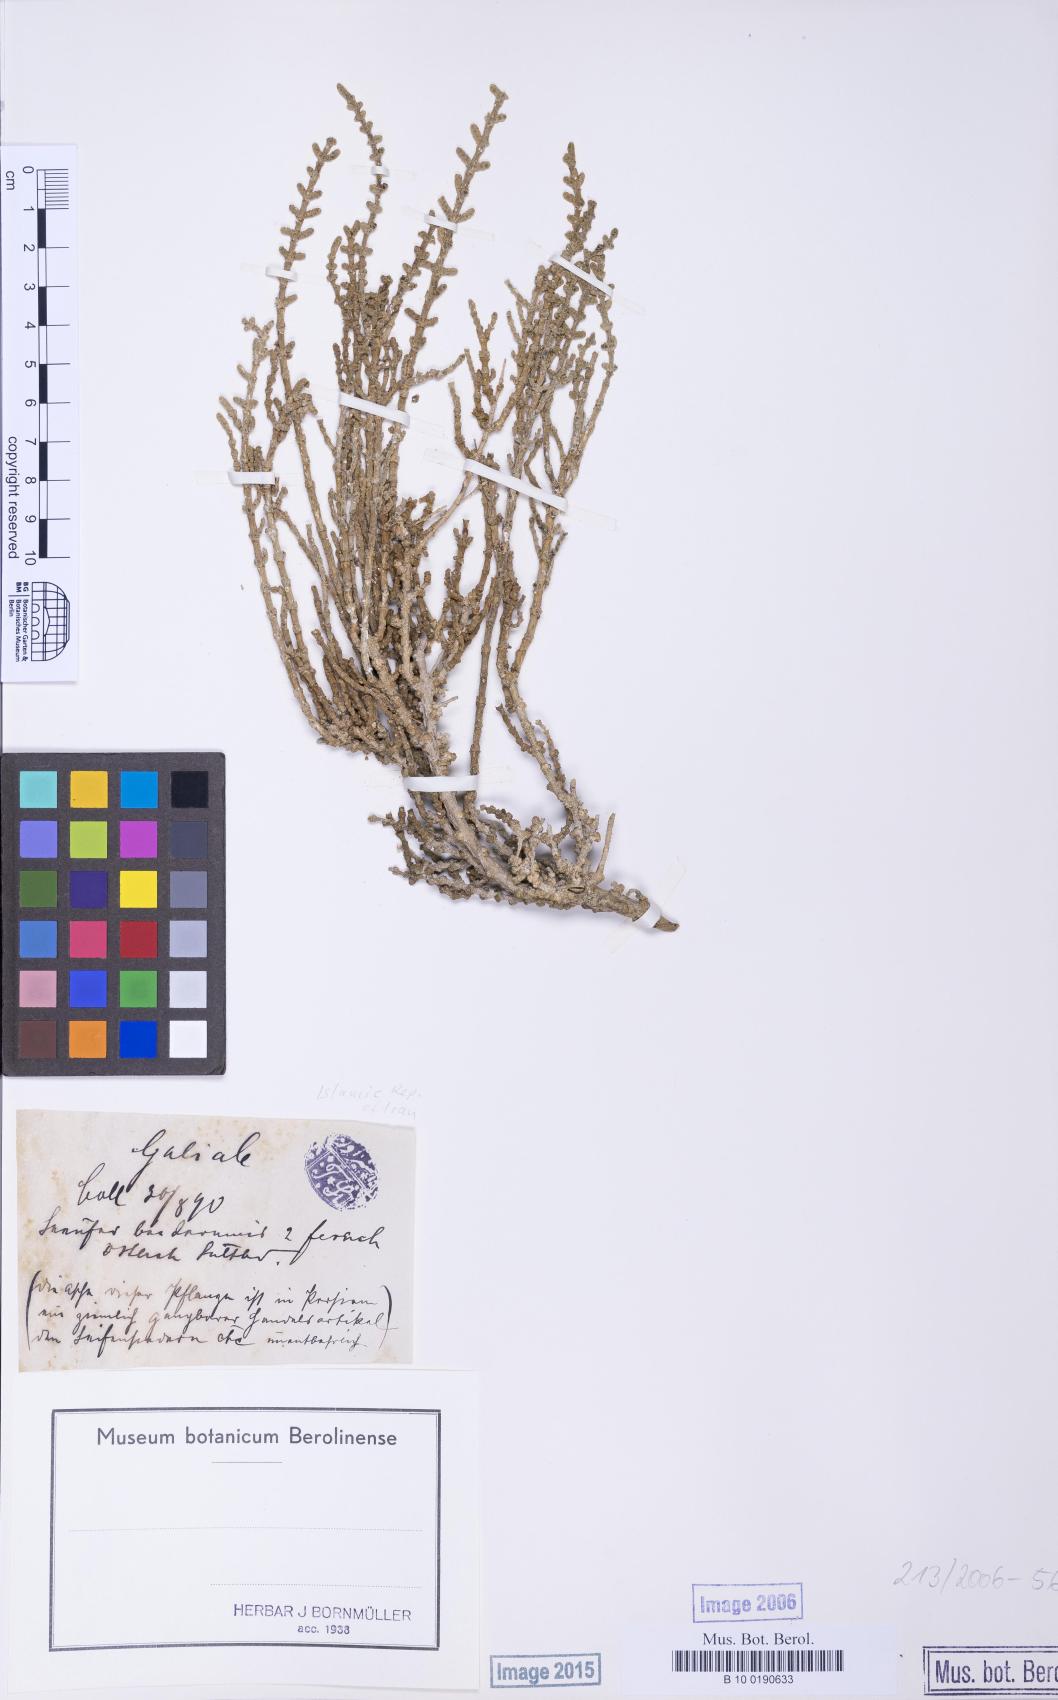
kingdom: Plantae
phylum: Tracheophyta
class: Magnoliopsida
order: Caryophyllales
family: Amaranthaceae
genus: Halocnemum
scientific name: Halocnemum strobilaceum
